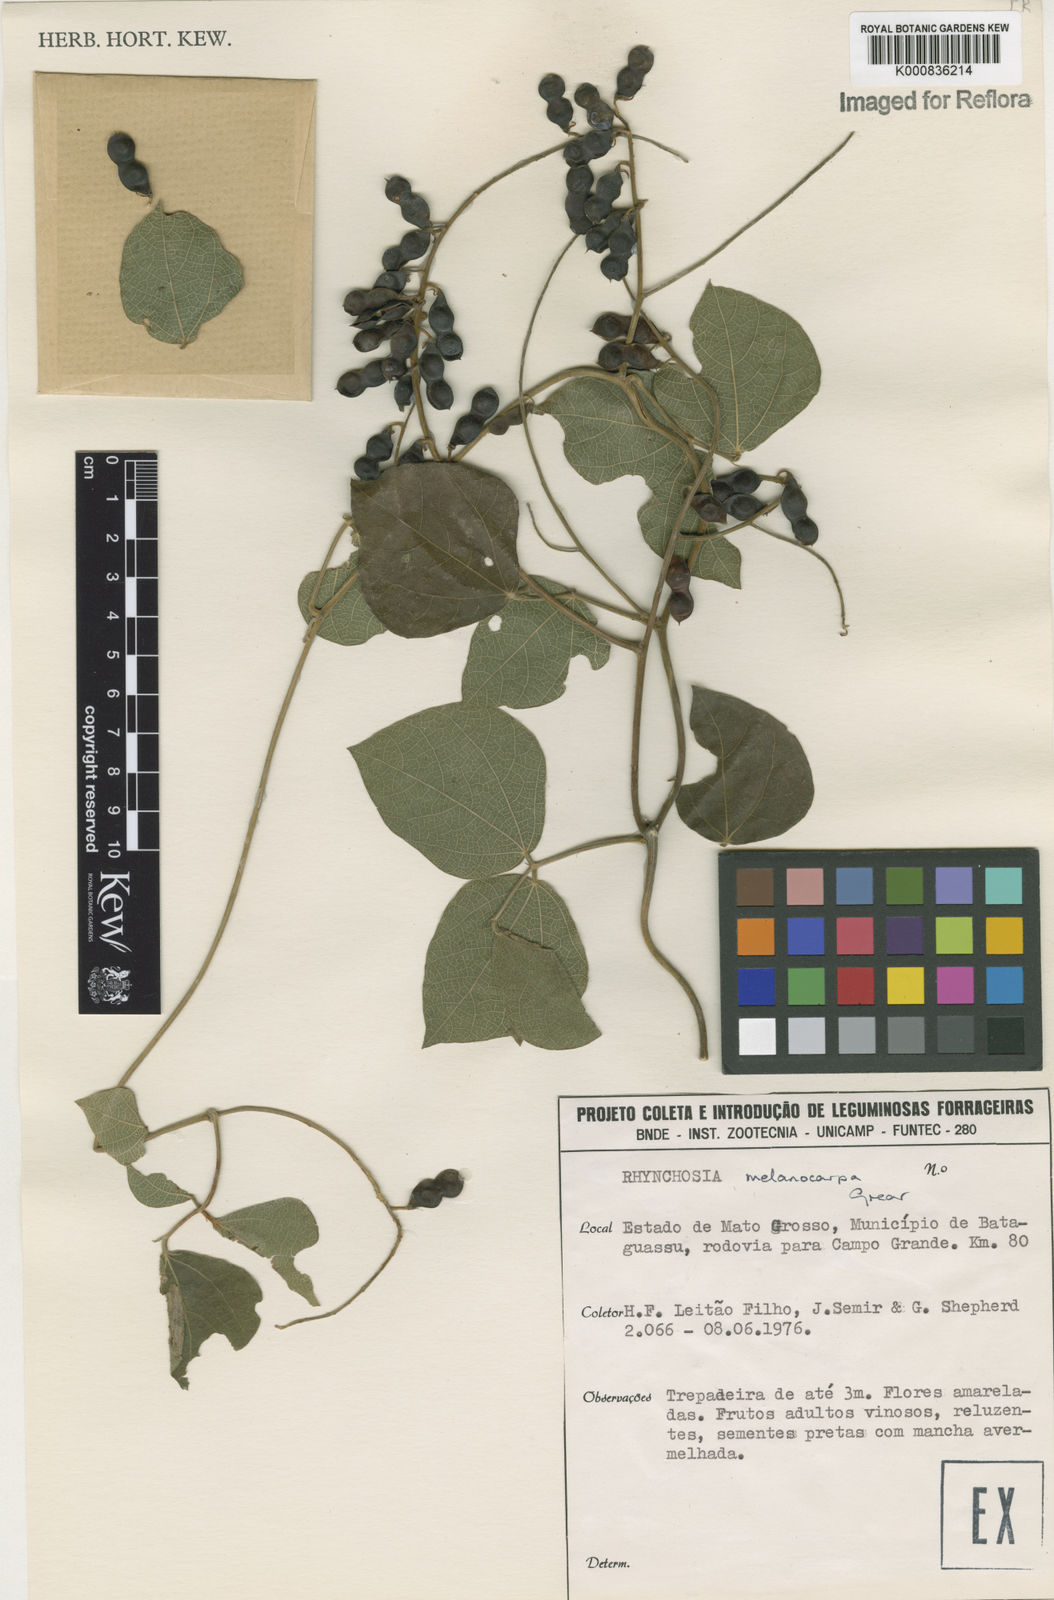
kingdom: Plantae
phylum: Tracheophyta
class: Magnoliopsida
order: Fabales
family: Fabaceae
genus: Rhynchosia
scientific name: Rhynchosia melanocarpa
